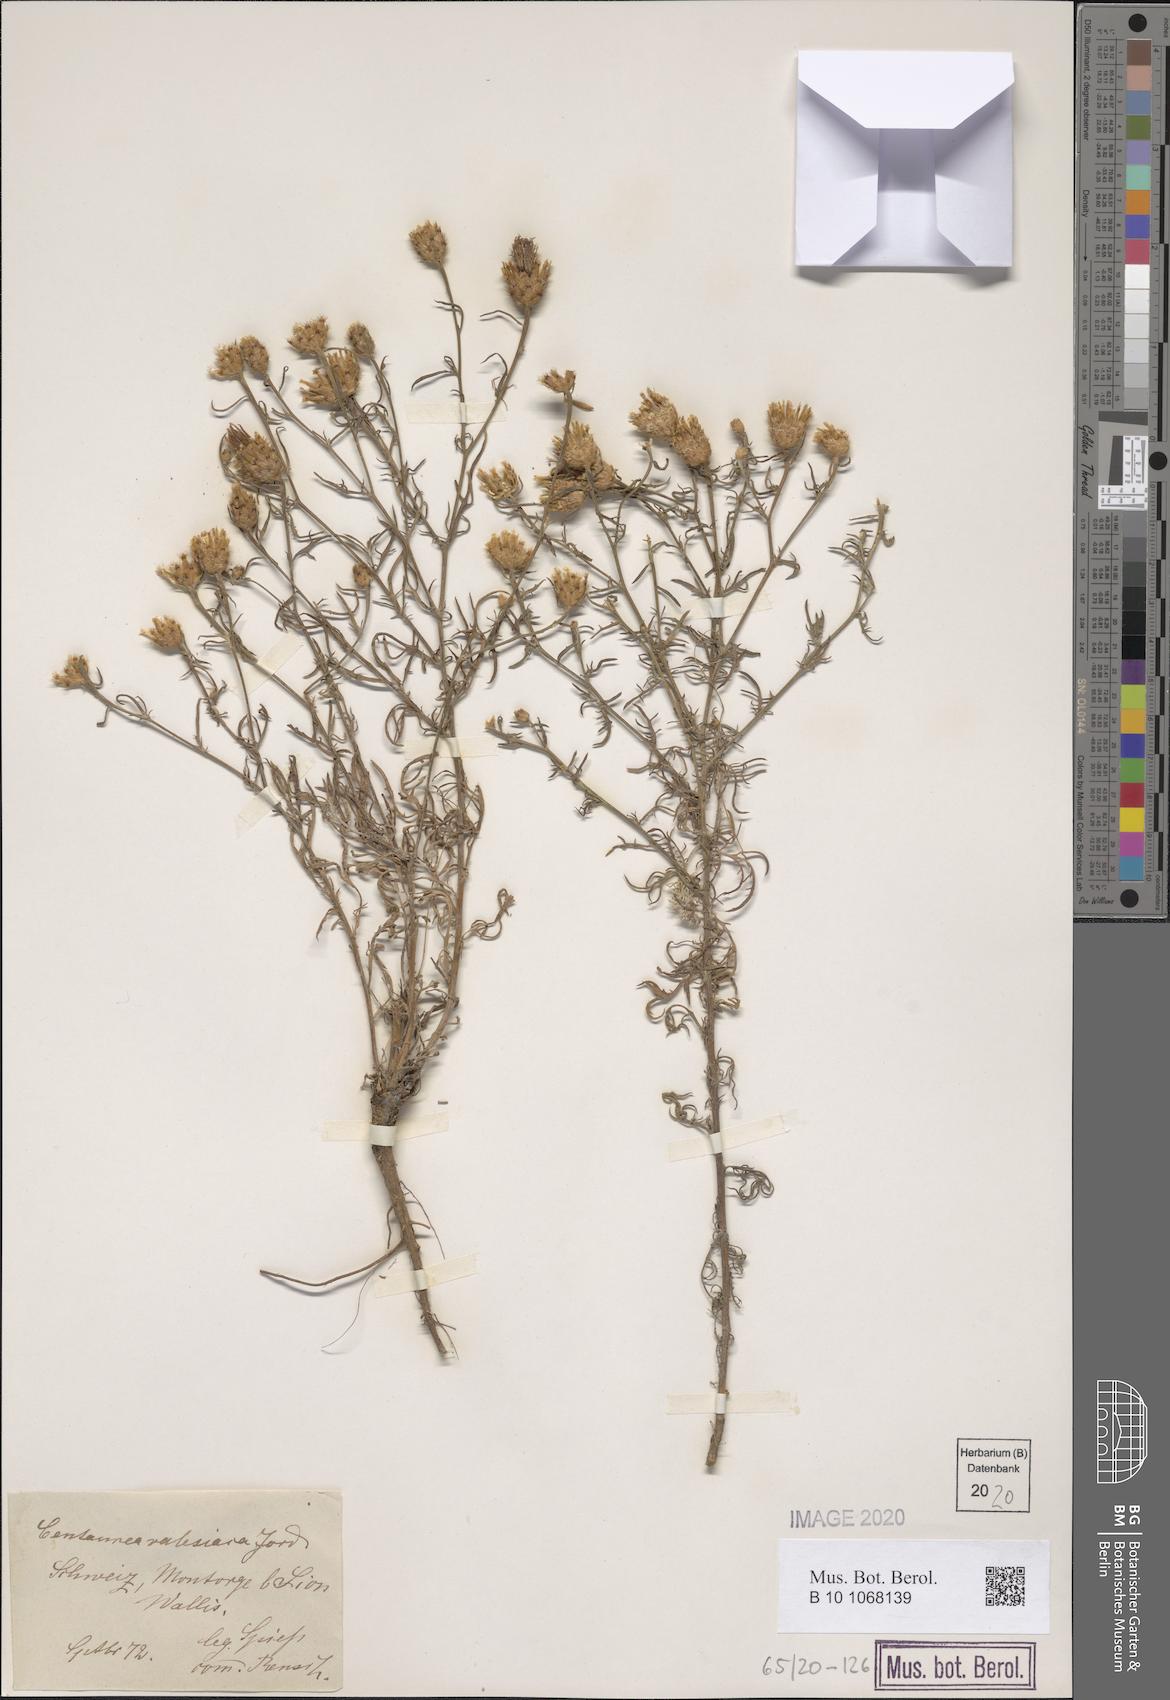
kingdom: Plantae
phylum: Tracheophyta
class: Magnoliopsida
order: Asterales
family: Asteraceae
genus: Centaurea
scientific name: Centaurea valesiaca
